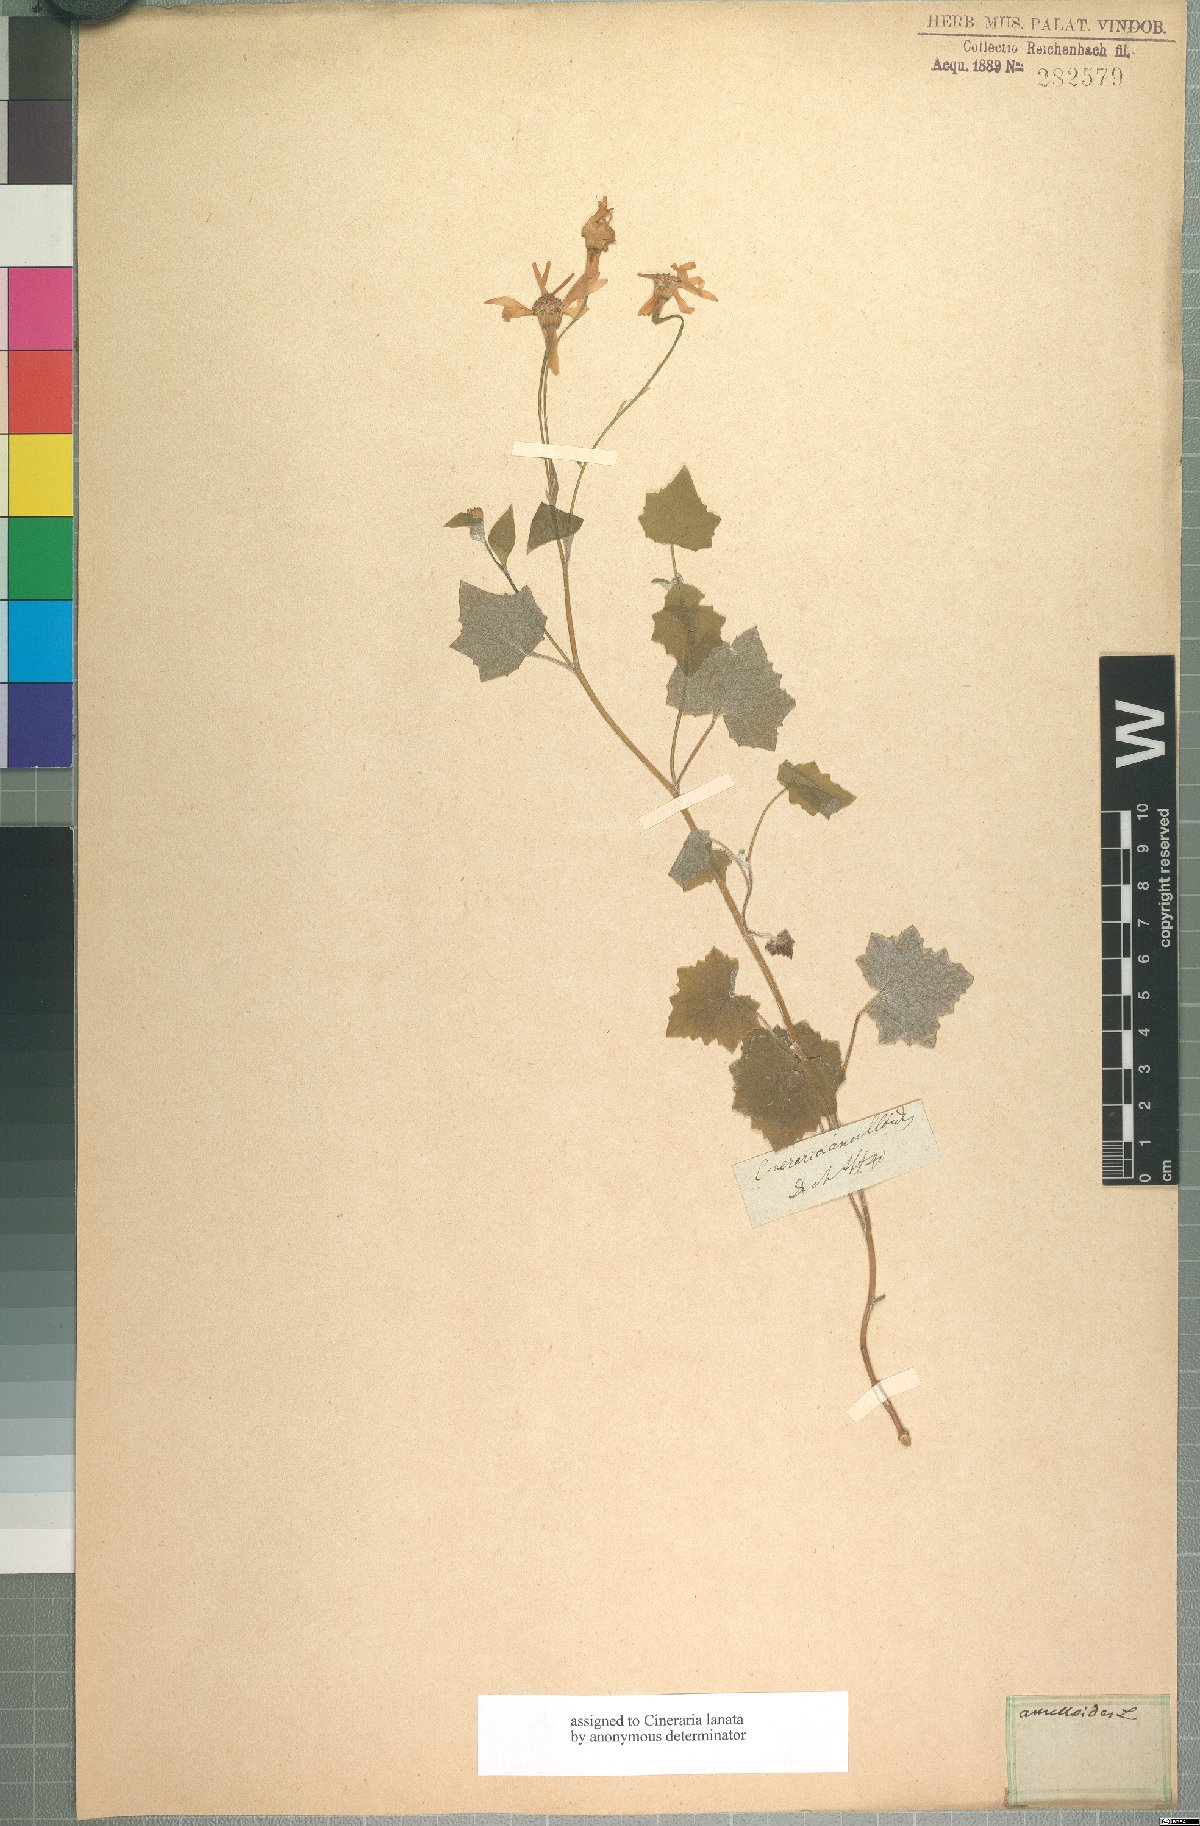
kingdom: Plantae
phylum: Tracheophyta
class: Magnoliopsida
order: Asterales
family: Asteraceae
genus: Cineraria
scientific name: Cineraria lanosa
